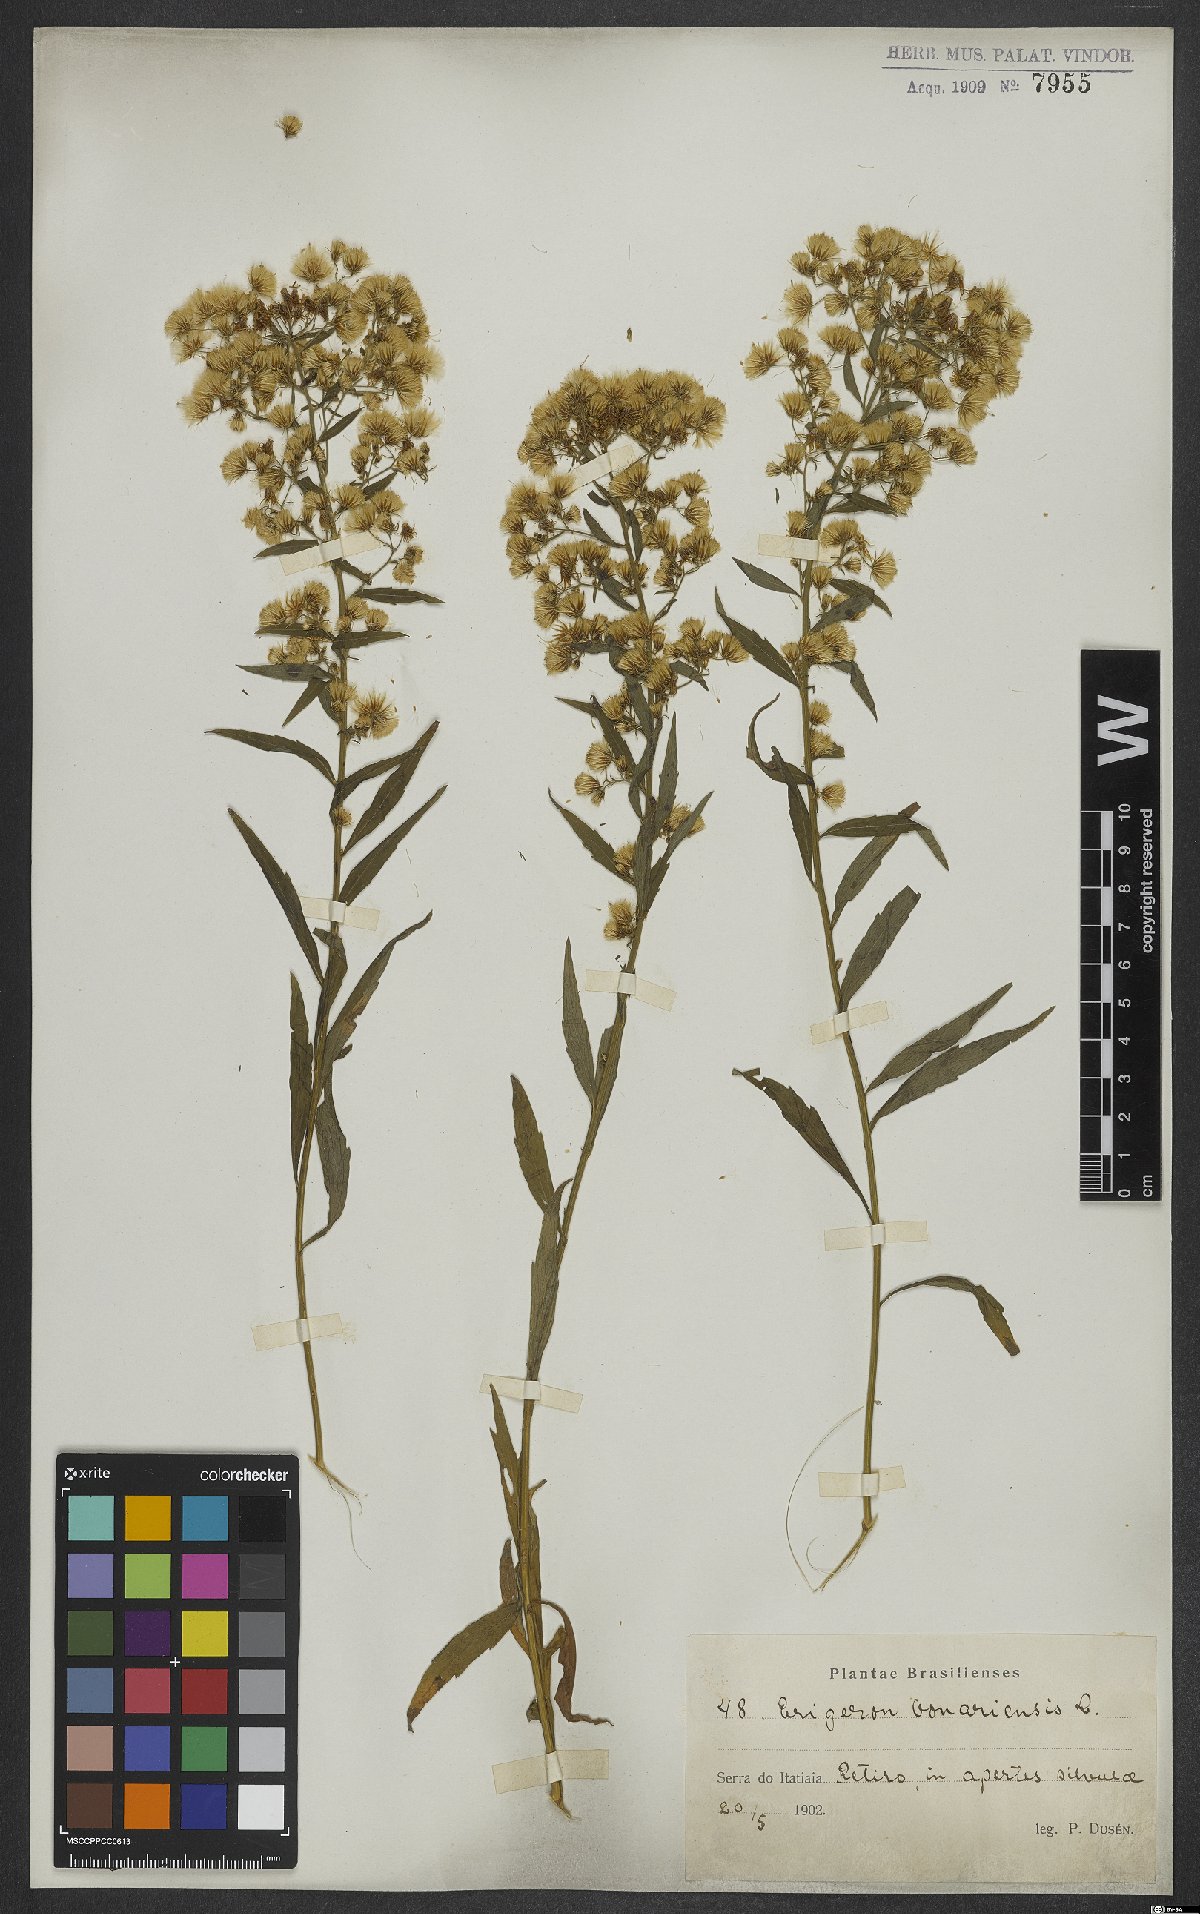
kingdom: Plantae
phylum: Tracheophyta
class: Magnoliopsida
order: Asterales
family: Asteraceae
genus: Erigeron
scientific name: Erigeron bonariensis
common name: Argentine fleabane
